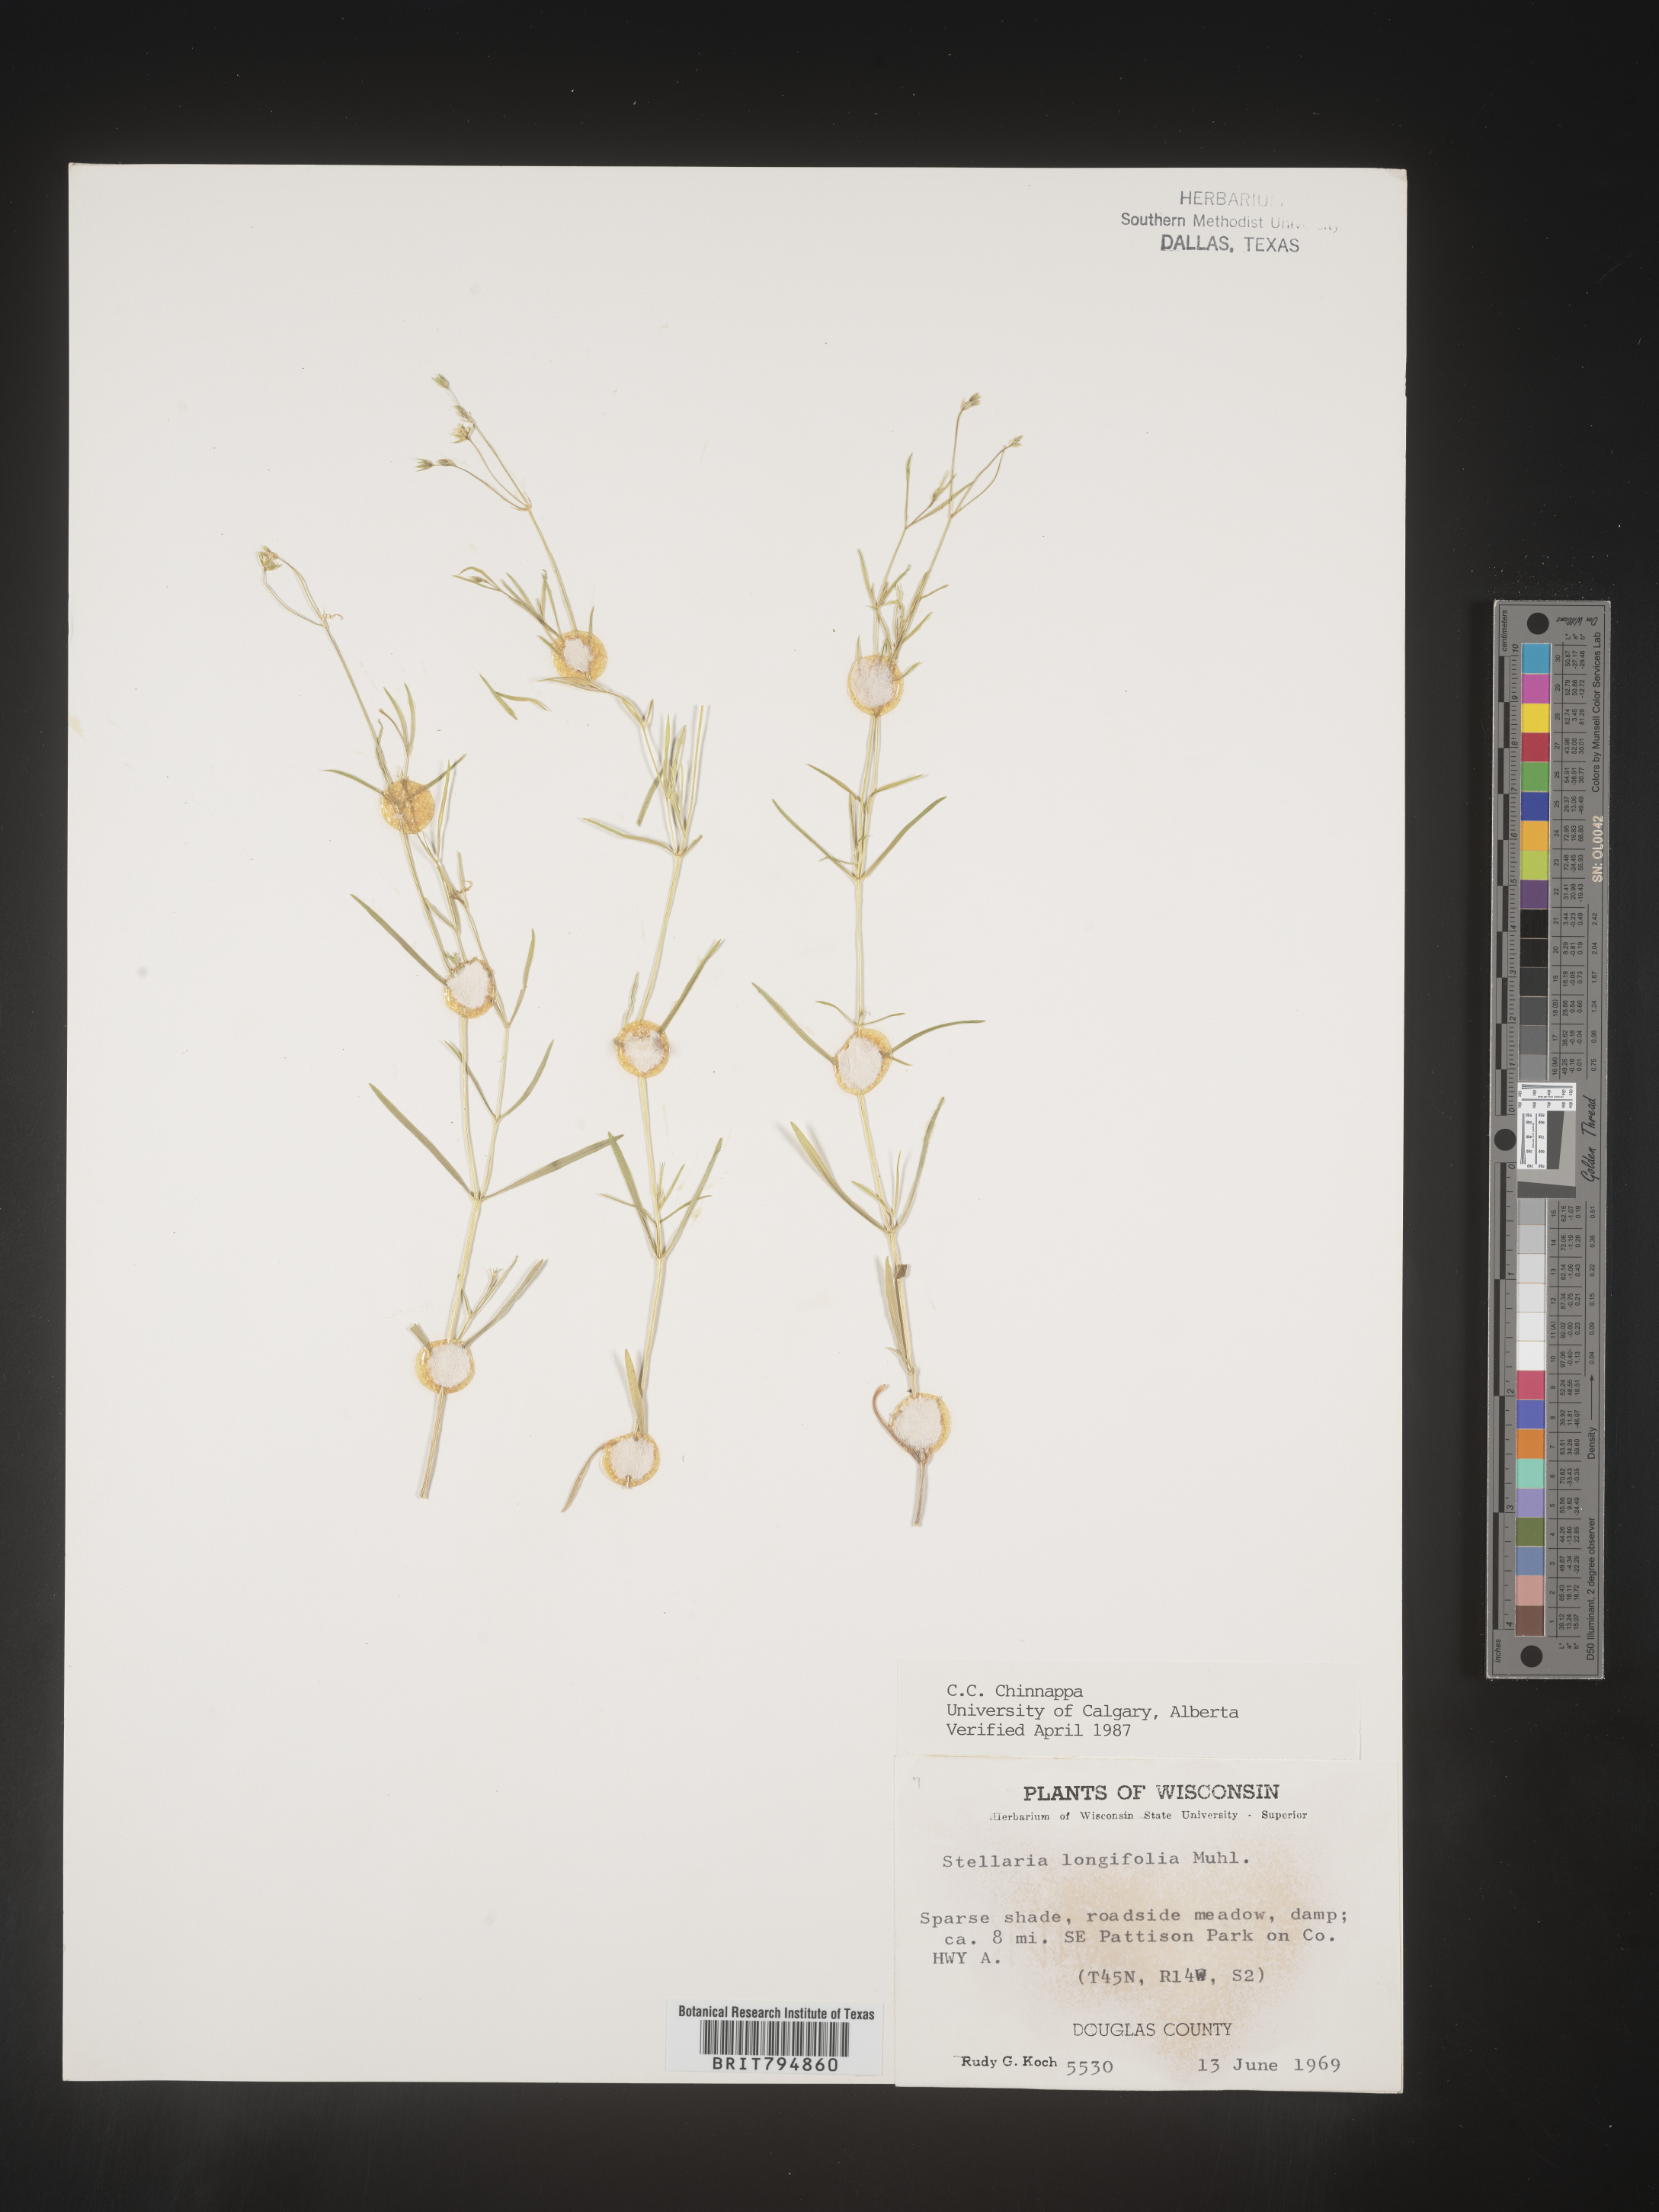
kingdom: Plantae
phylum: Tracheophyta
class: Magnoliopsida
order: Caryophyllales
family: Caryophyllaceae
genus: Stellaria
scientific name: Stellaria longifolia
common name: Long-leaved chickweed
